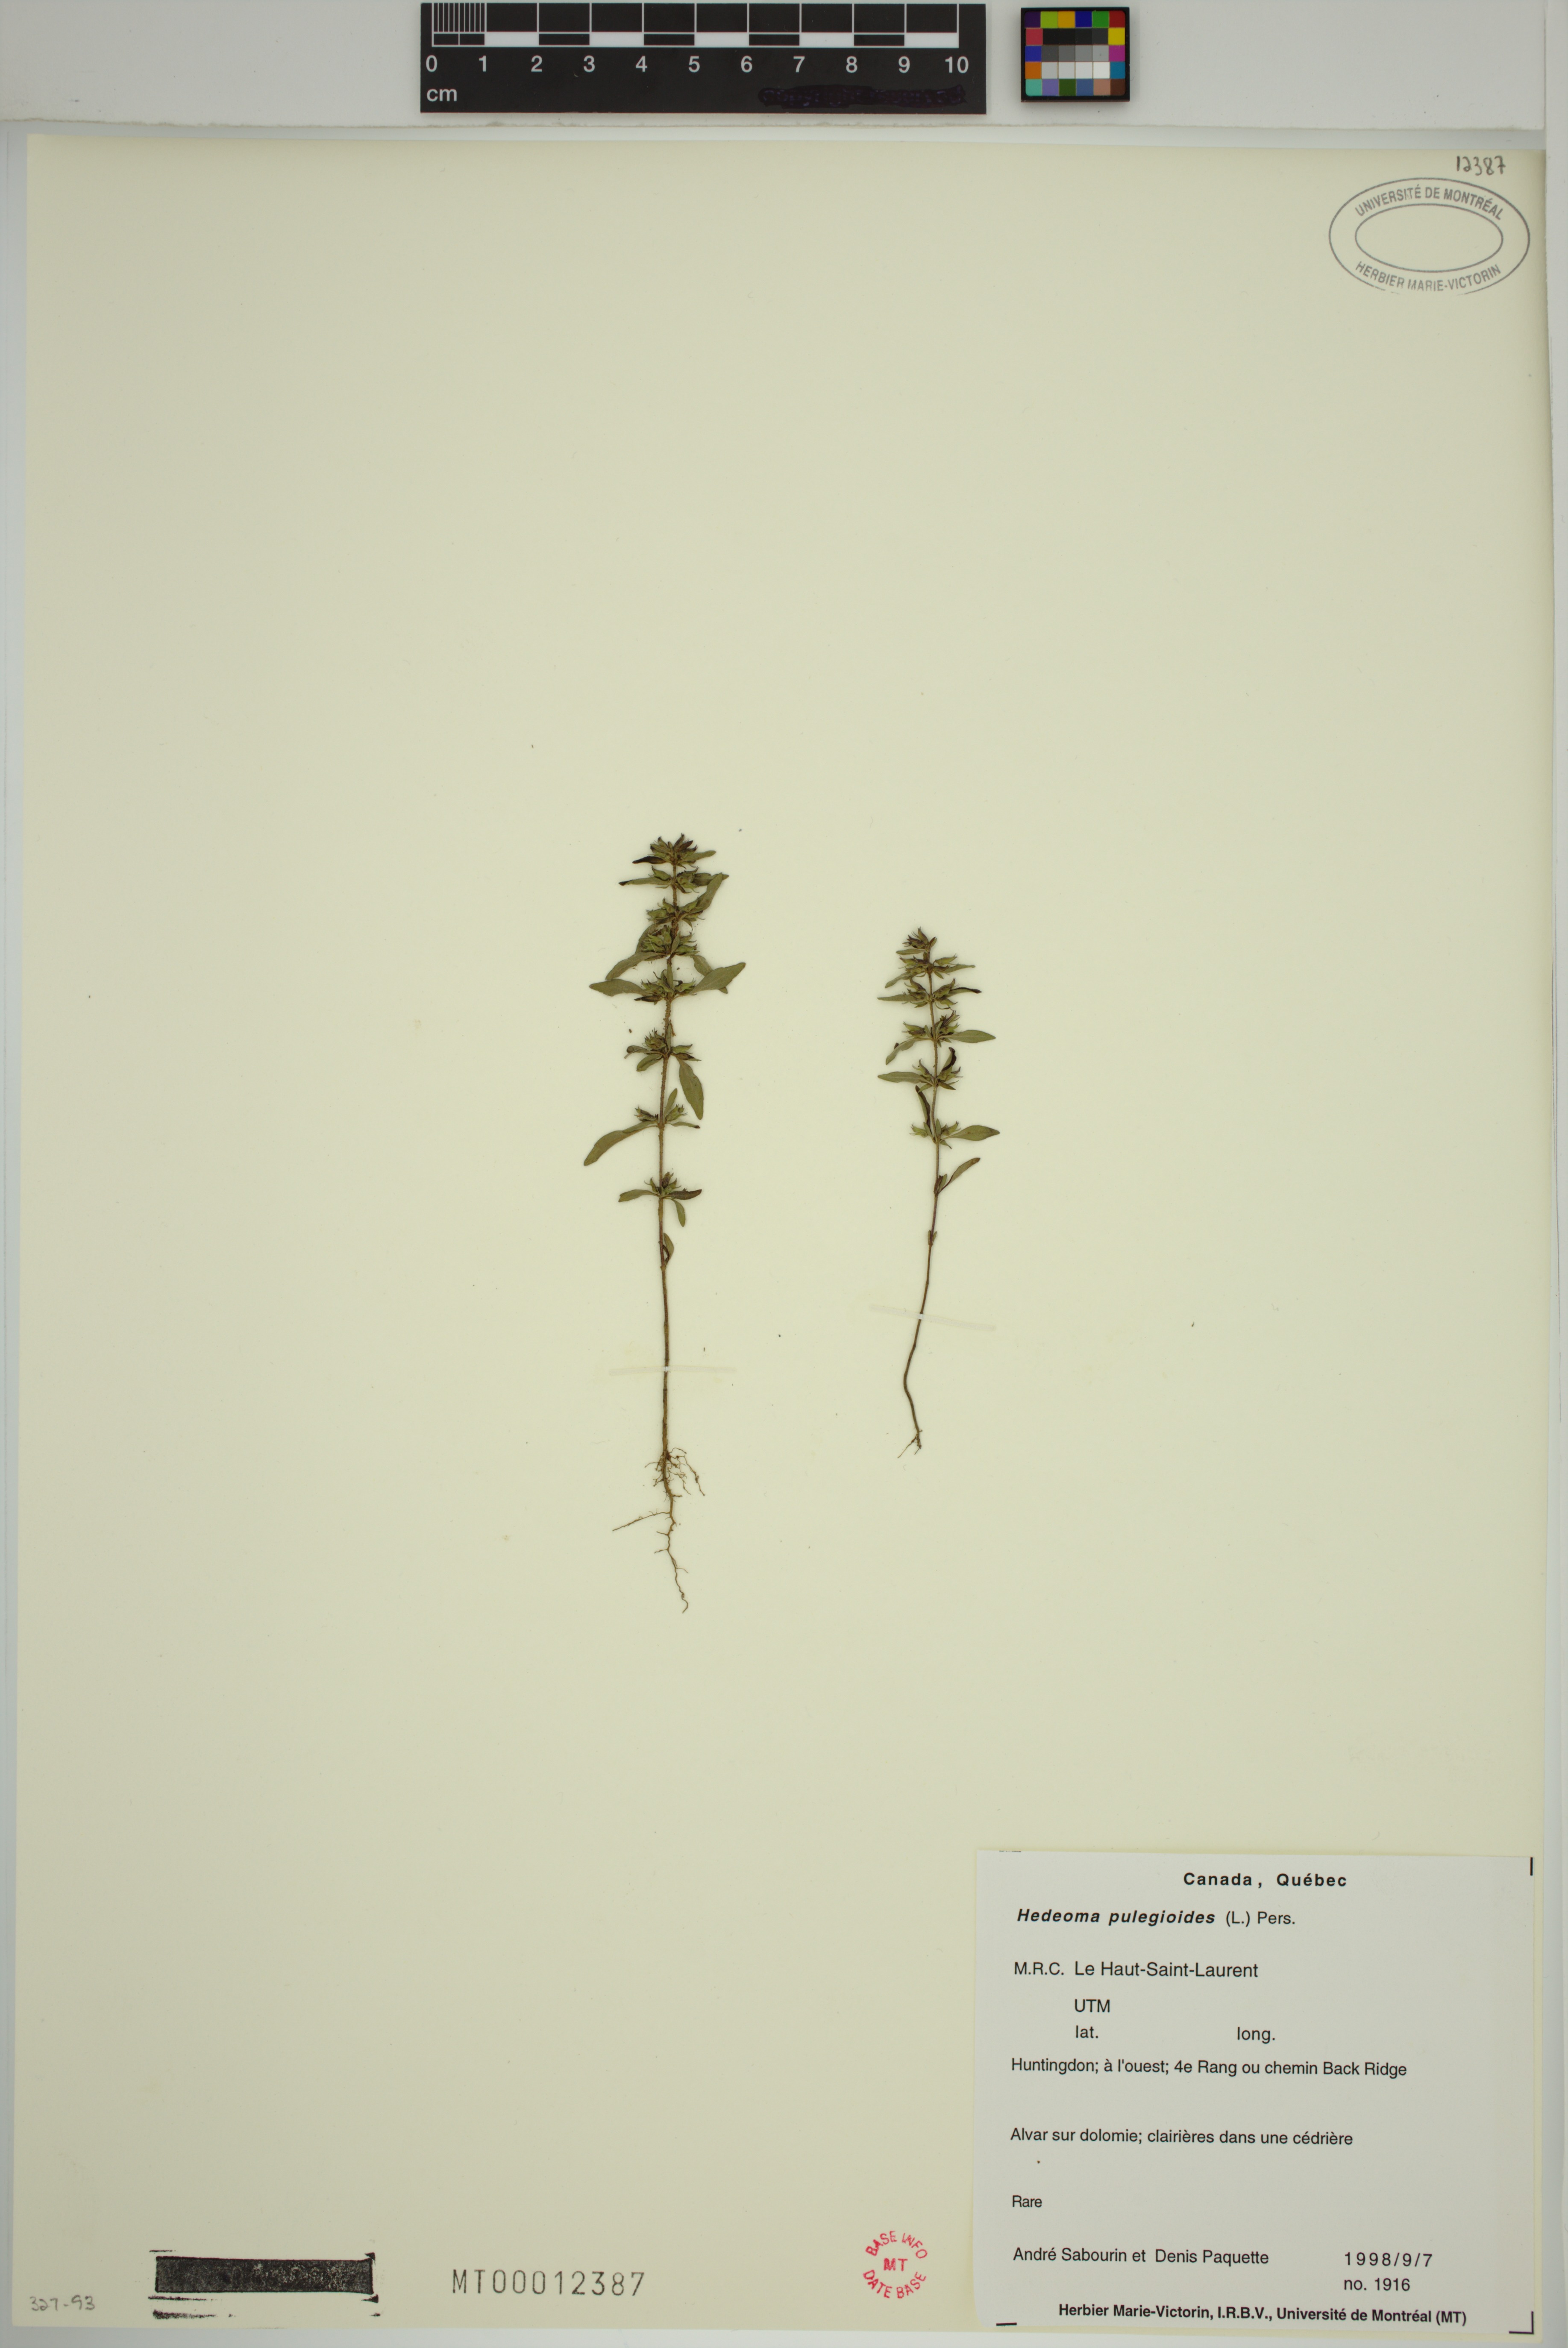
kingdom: Plantae
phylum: Tracheophyta
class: Magnoliopsida
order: Lamiales
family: Lamiaceae
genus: Hedeoma
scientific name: Hedeoma pulegioides
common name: American false pennyroyal
